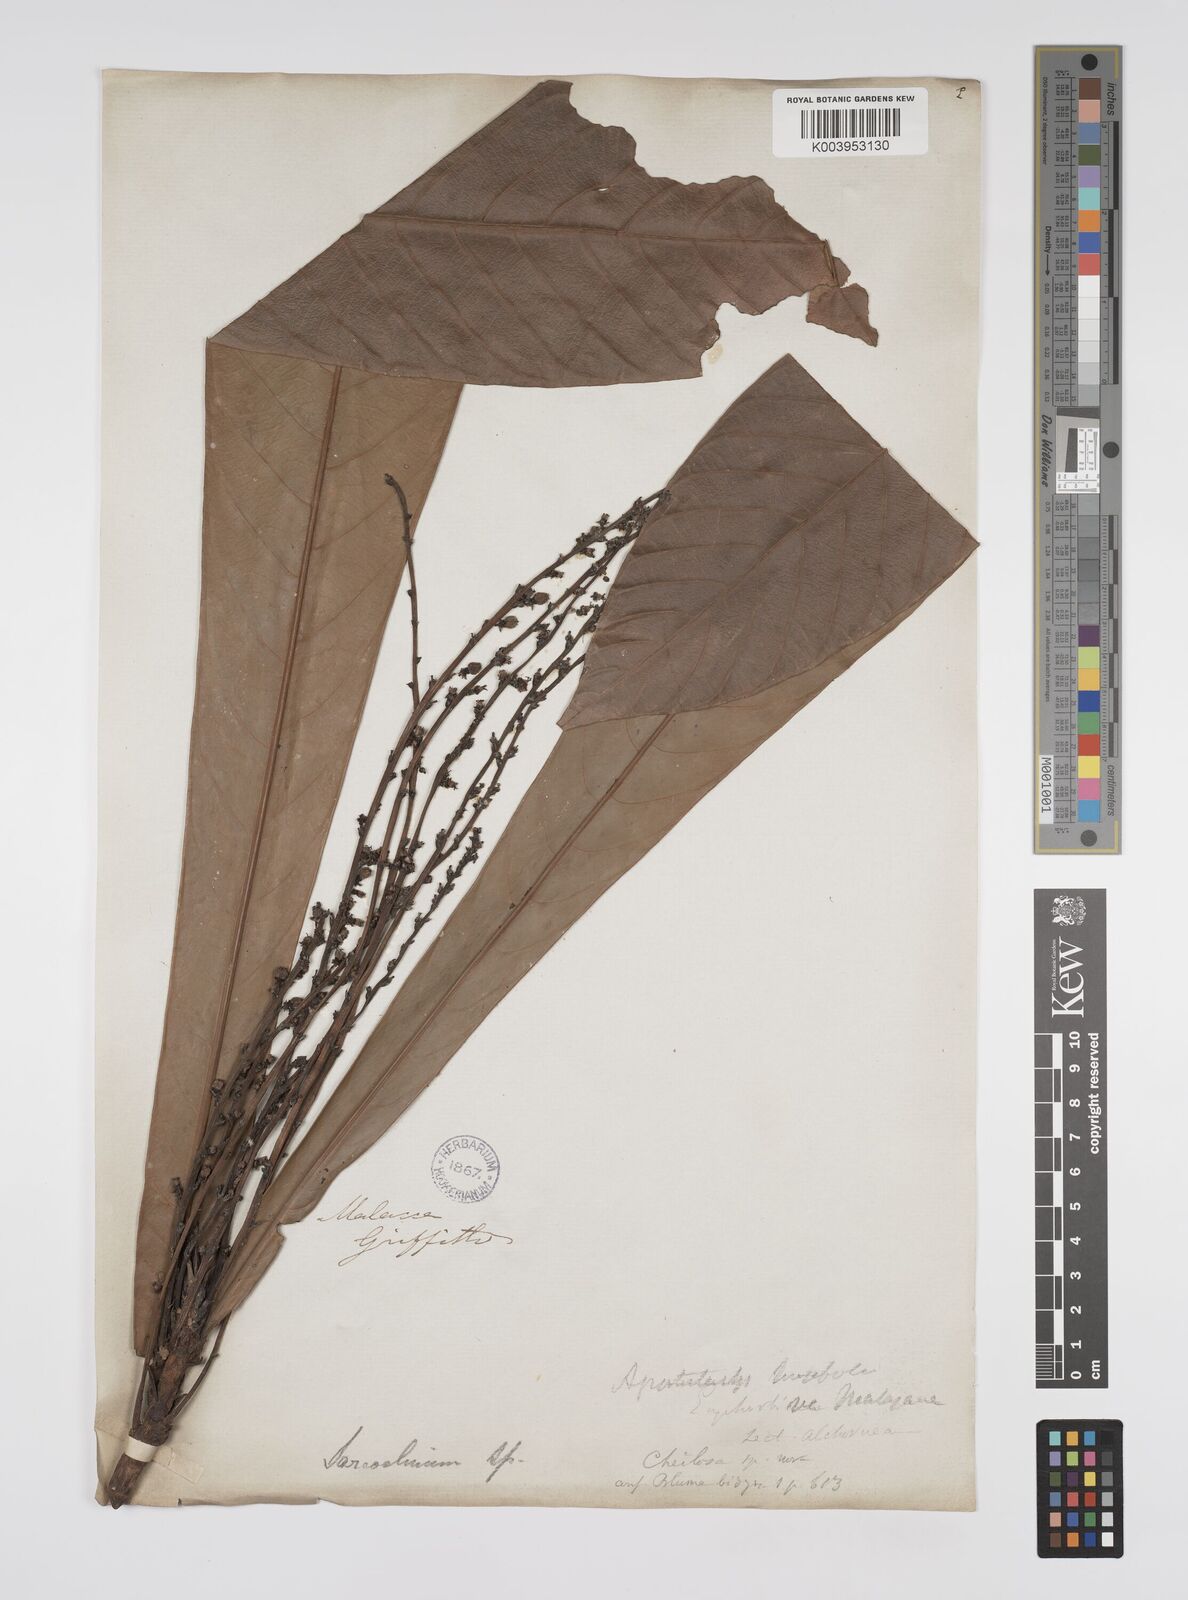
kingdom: Plantae
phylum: Tracheophyta
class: Magnoliopsida
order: Malpighiales
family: Euphorbiaceae
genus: Agrostistachys
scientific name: Agrostistachys sessilifolia
